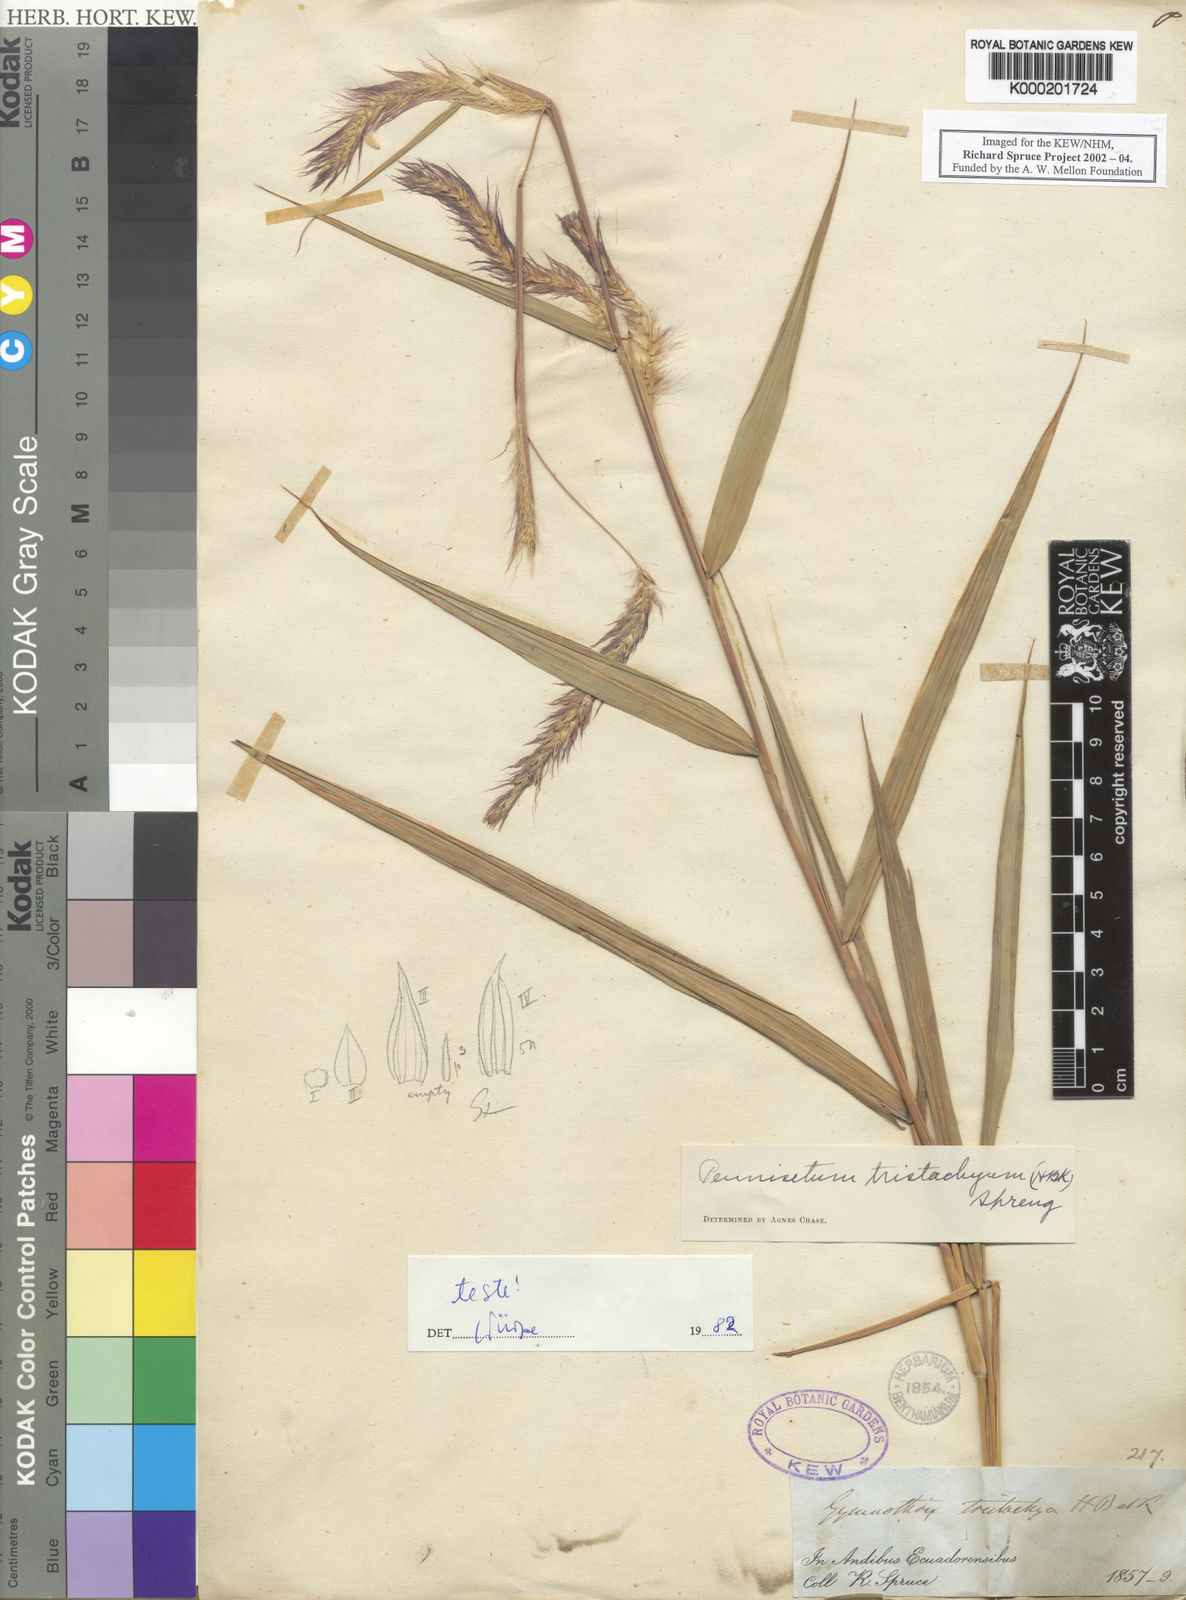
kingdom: Plantae
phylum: Tracheophyta
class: Liliopsida
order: Poales
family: Poaceae
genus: Cenchrus
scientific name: Cenchrus tristachyus
